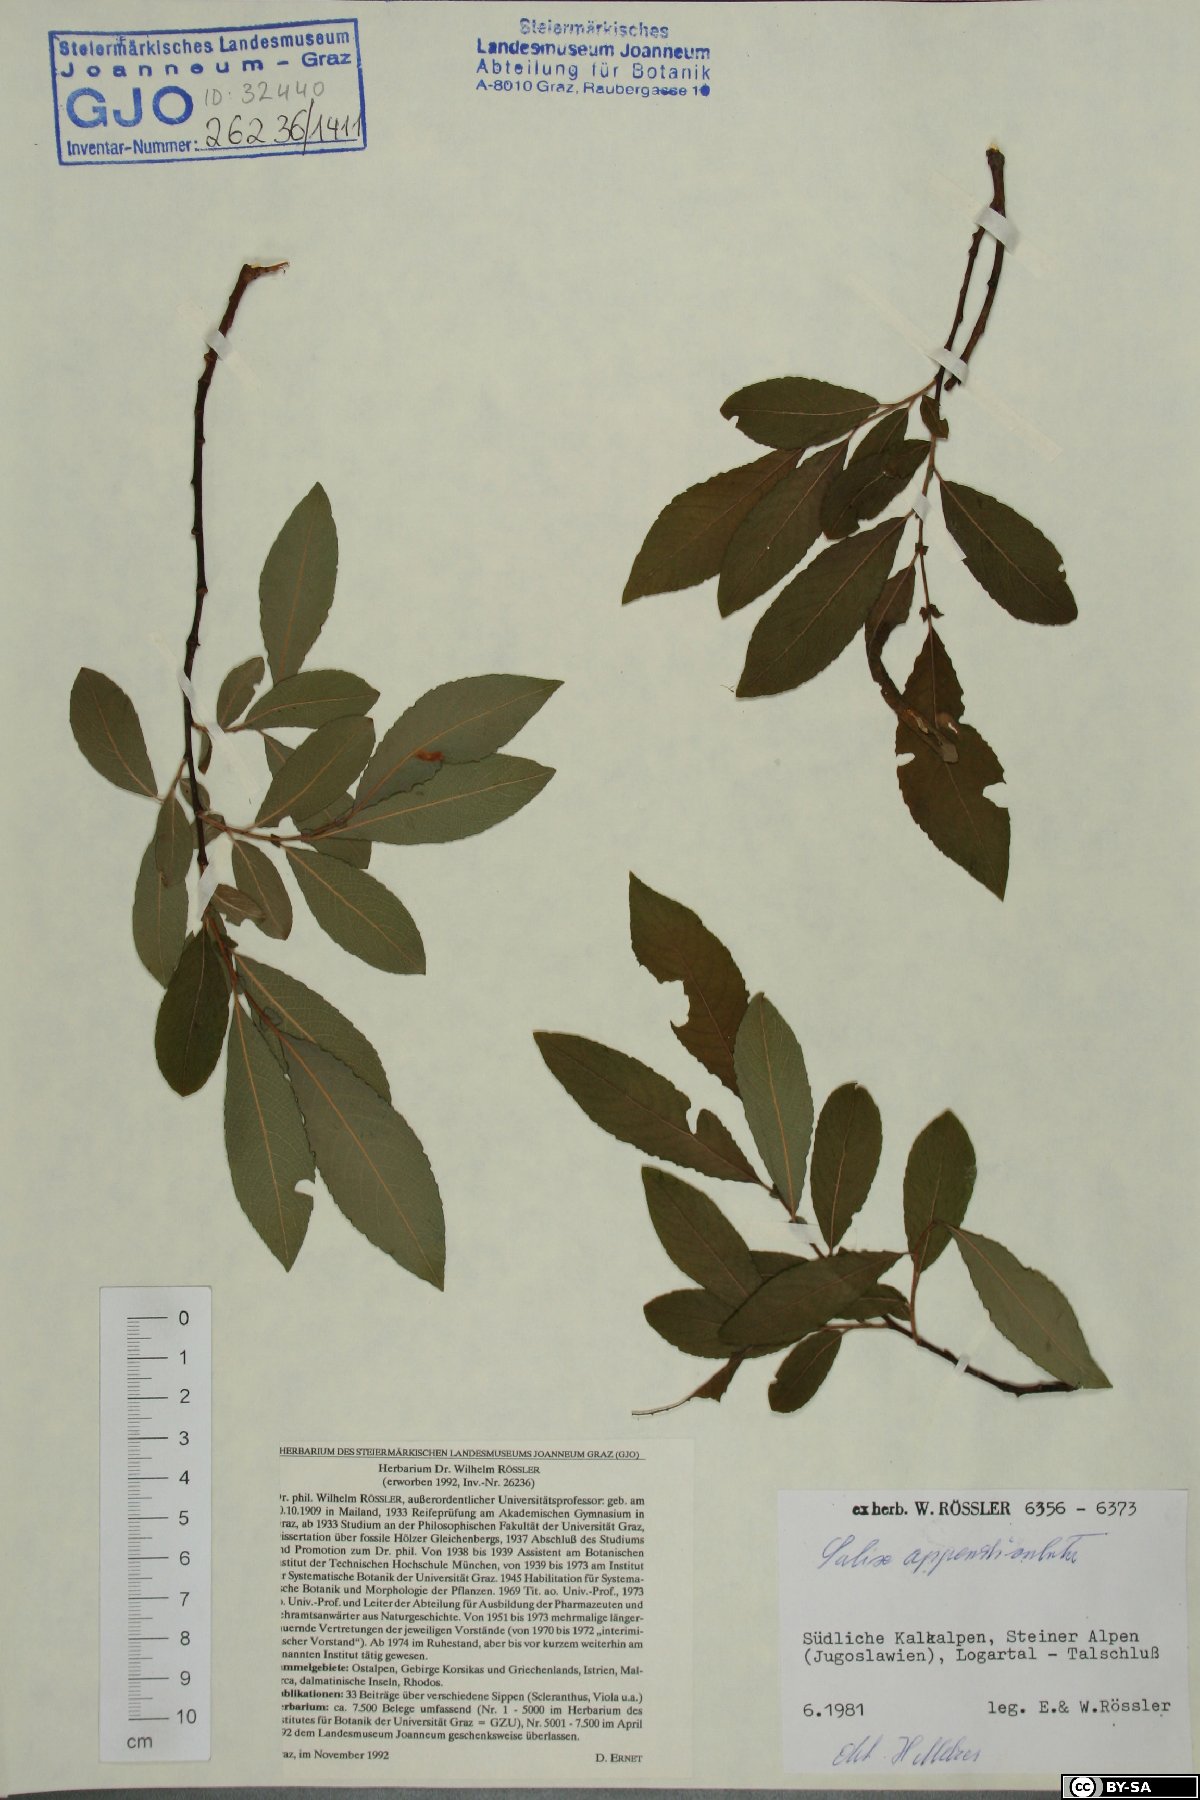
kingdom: Plantae
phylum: Tracheophyta
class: Magnoliopsida
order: Malpighiales
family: Salicaceae
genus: Salix
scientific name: Salix appendiculata
